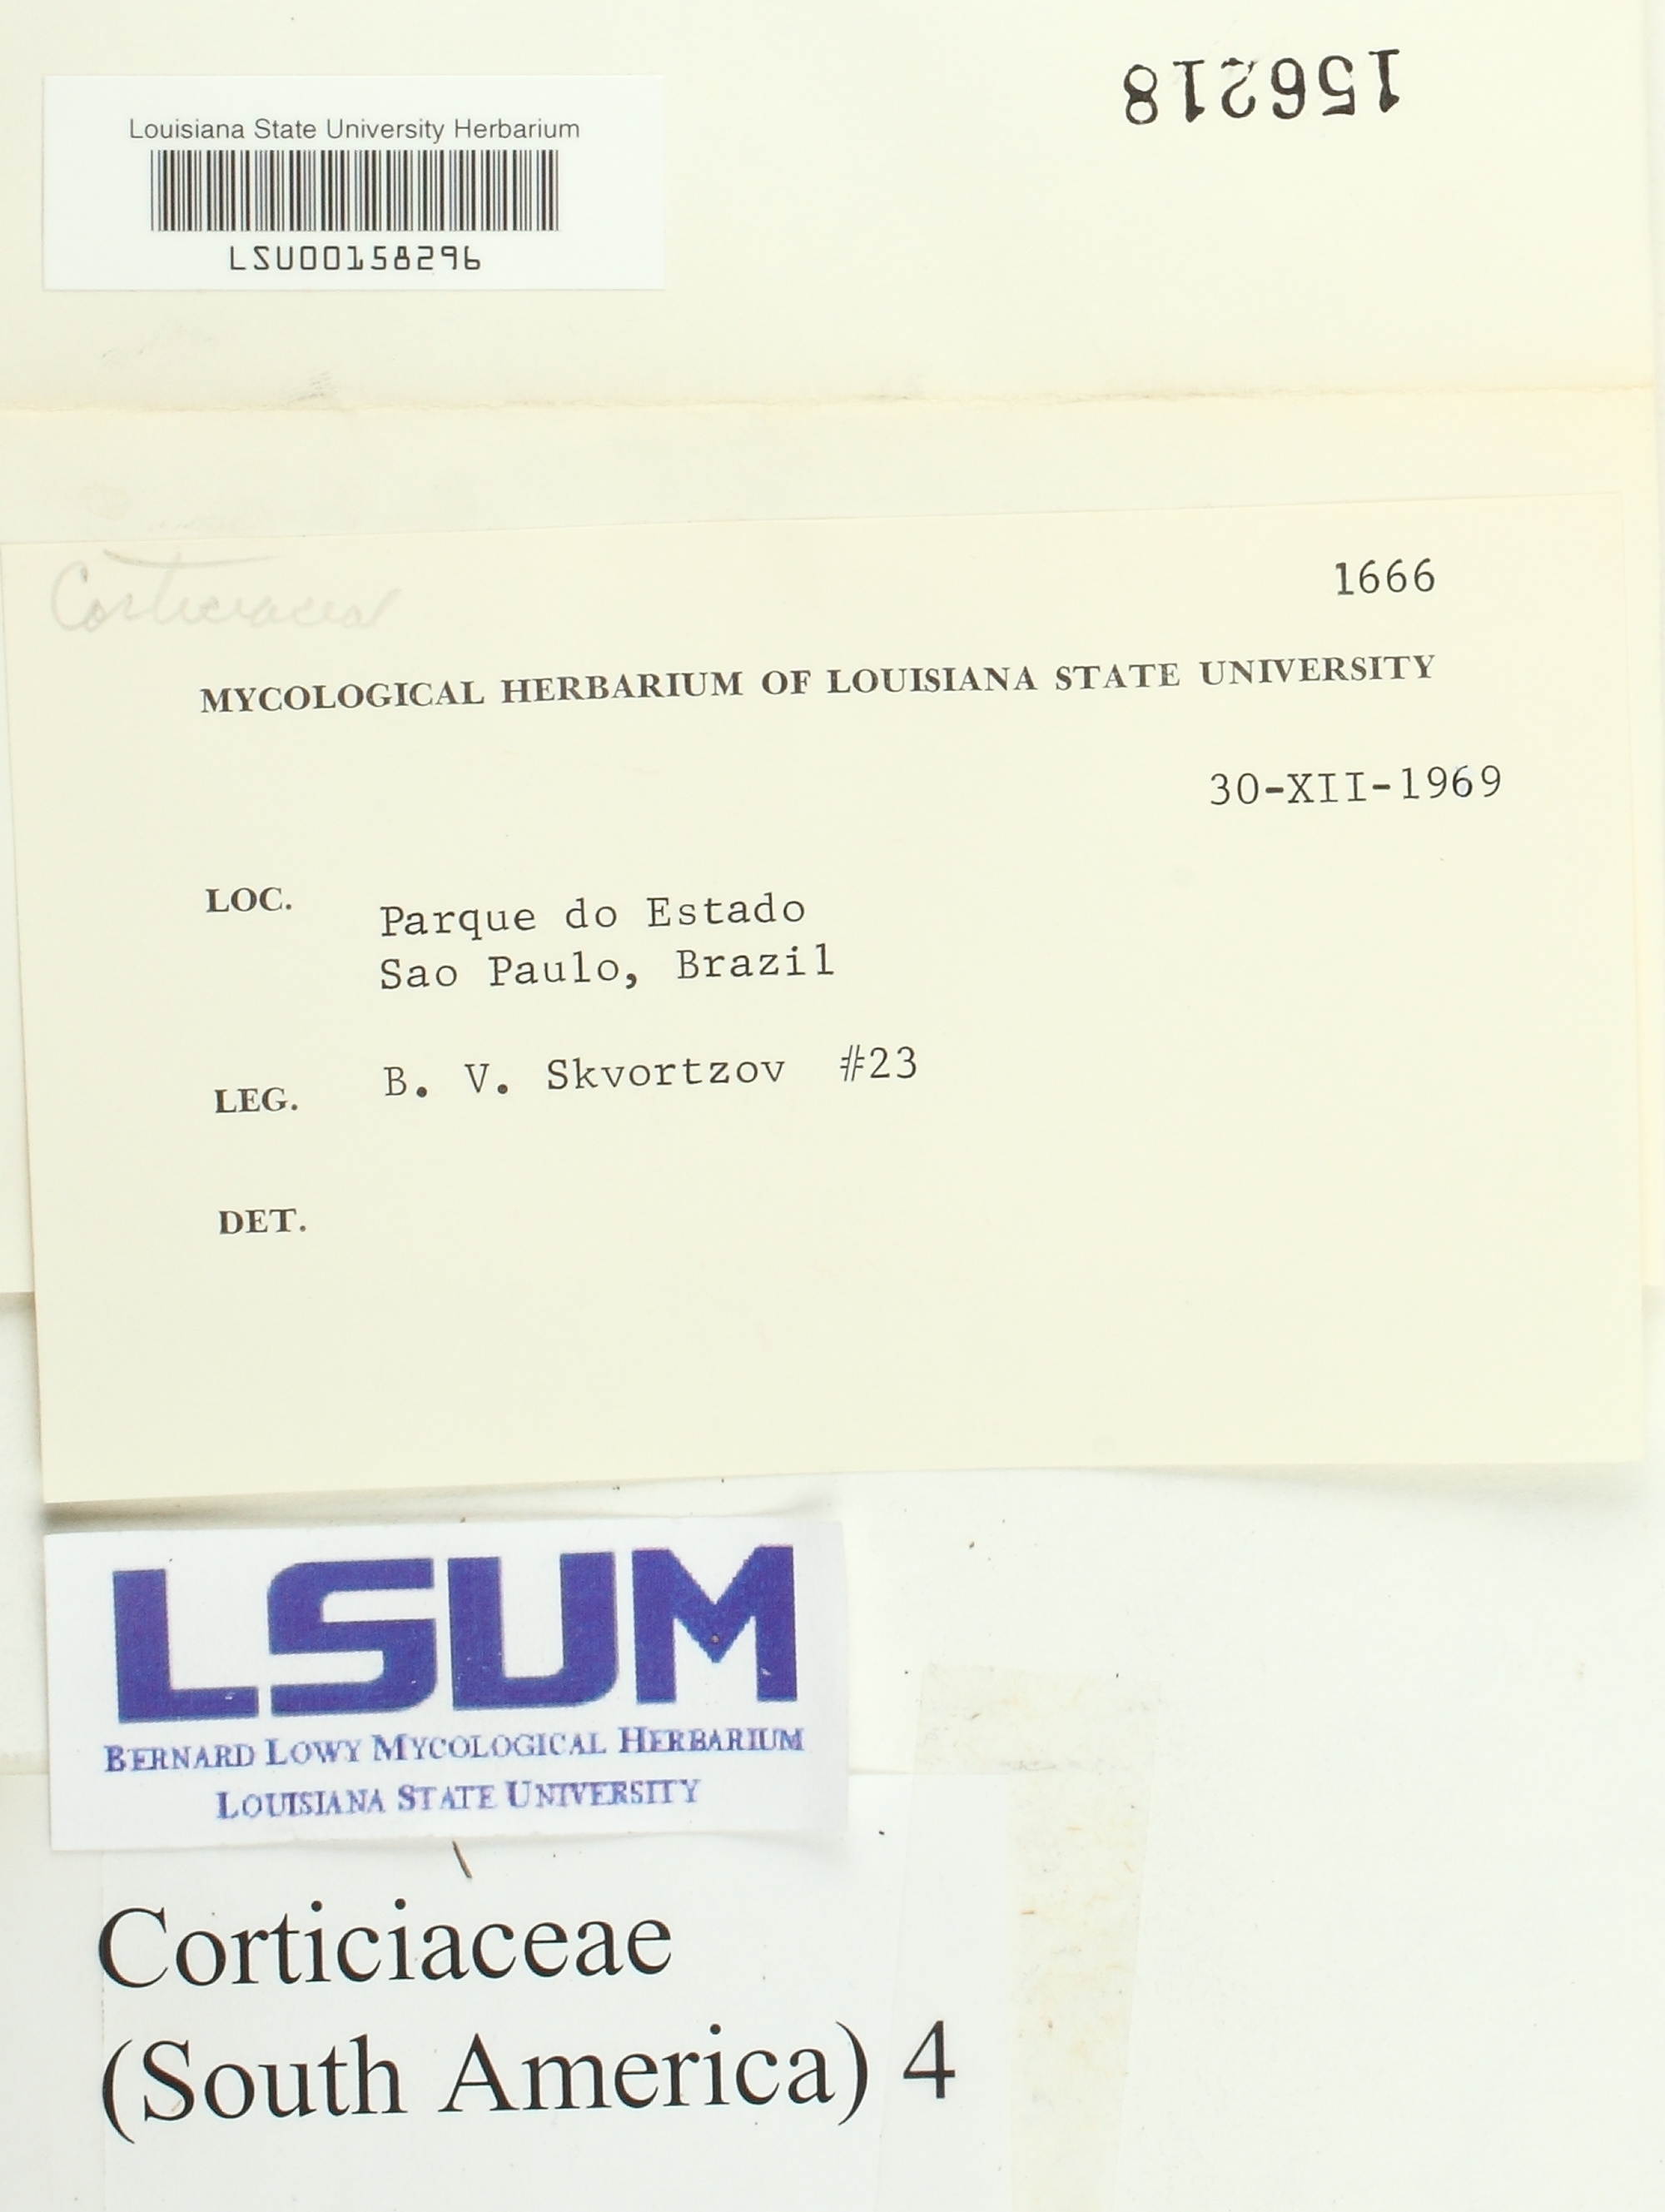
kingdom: Fungi
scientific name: Fungi
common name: Fungi
